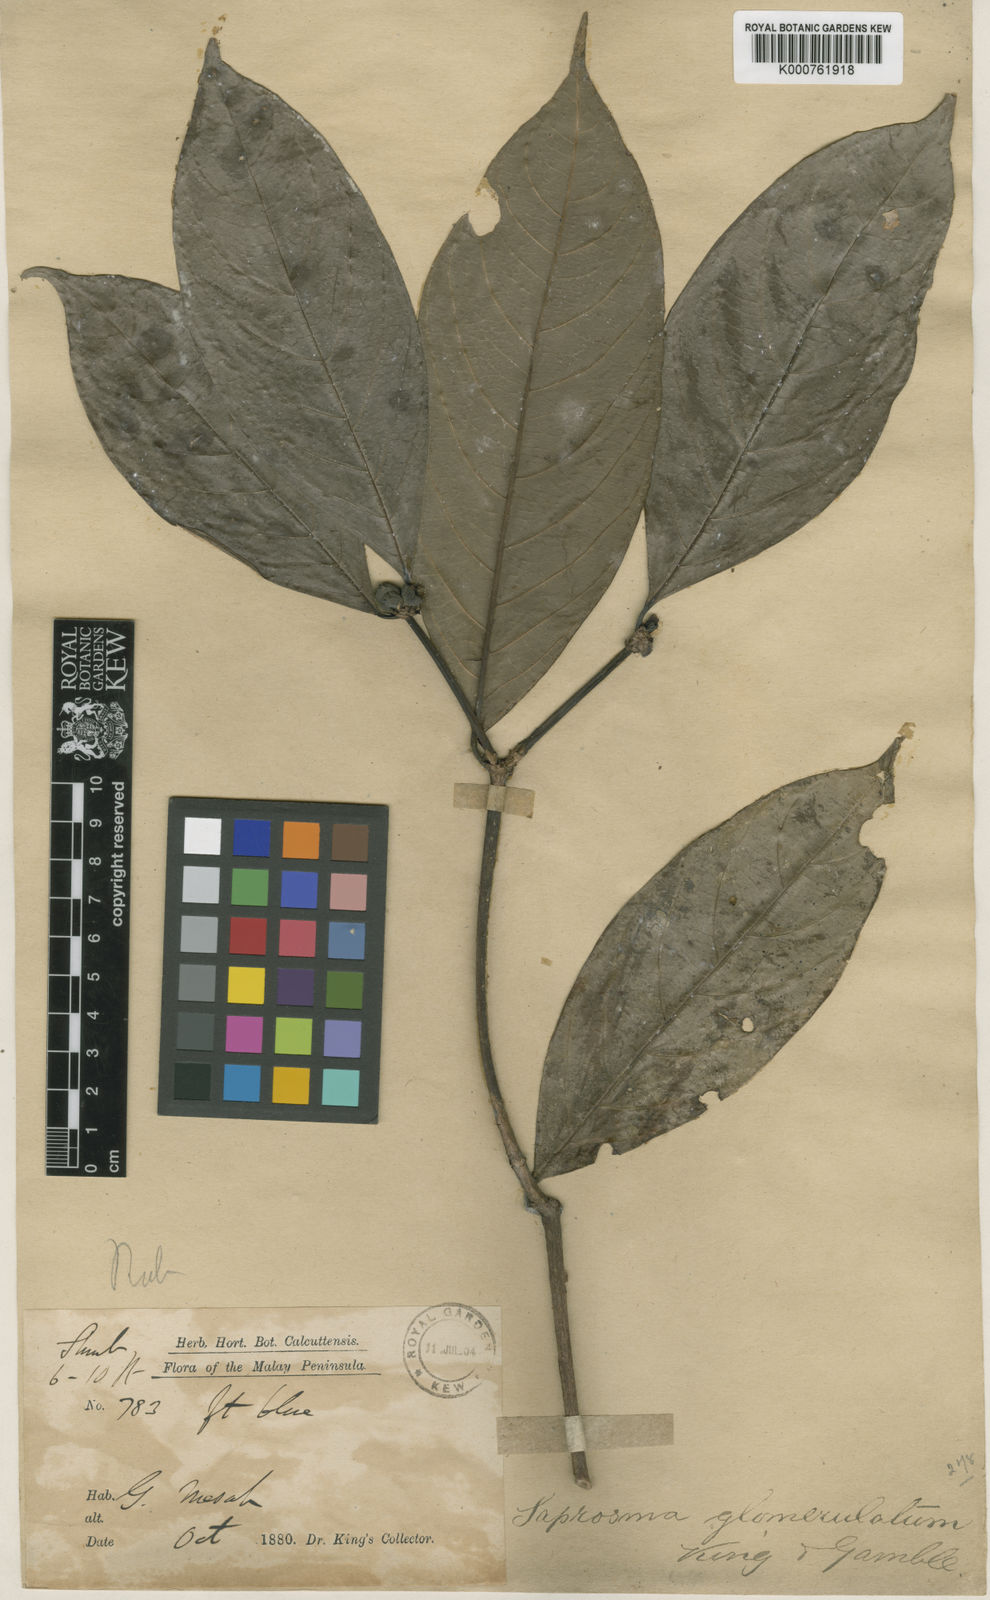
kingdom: Plantae
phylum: Tracheophyta
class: Magnoliopsida
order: Gentianales
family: Rubiaceae
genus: Saprosma
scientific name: Saprosma glomerulata
